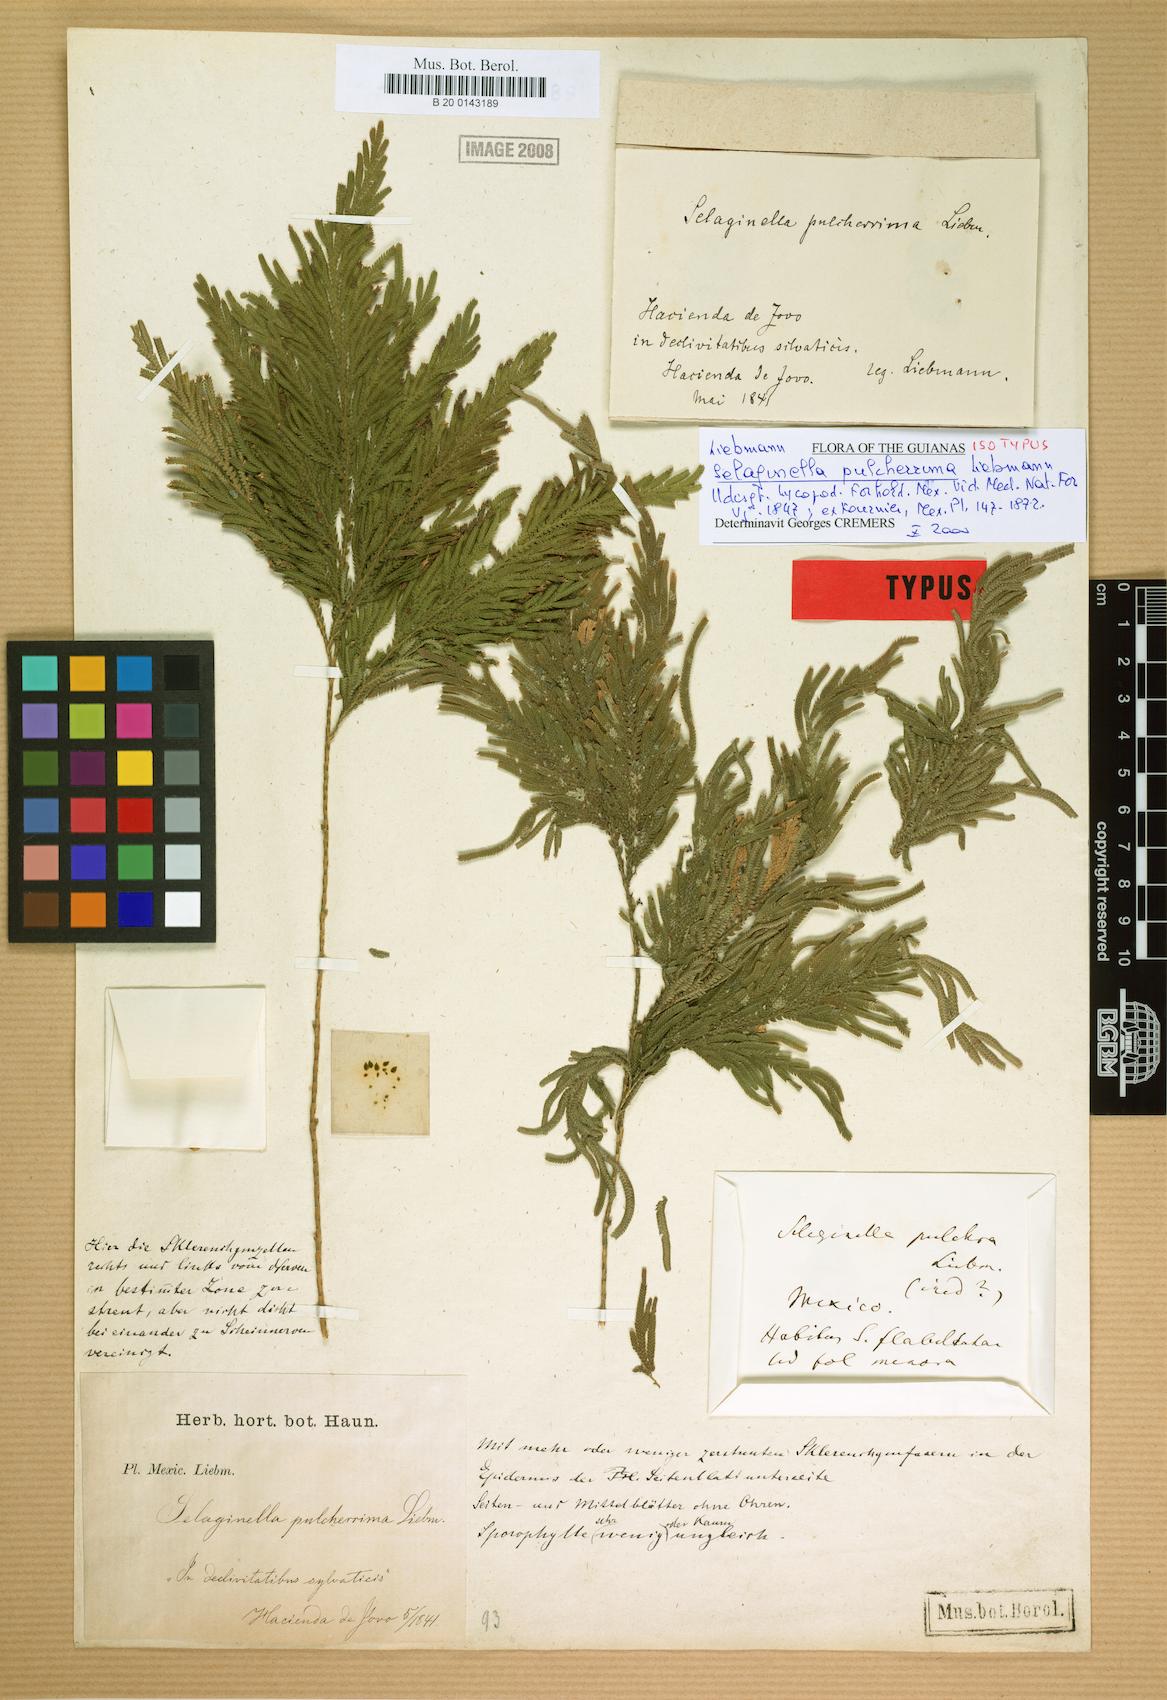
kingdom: Plantae
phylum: Tracheophyta
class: Lycopodiopsida
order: Selaginellales
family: Selaginellaceae
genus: Selaginella
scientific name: Selaginella pulcherrima
